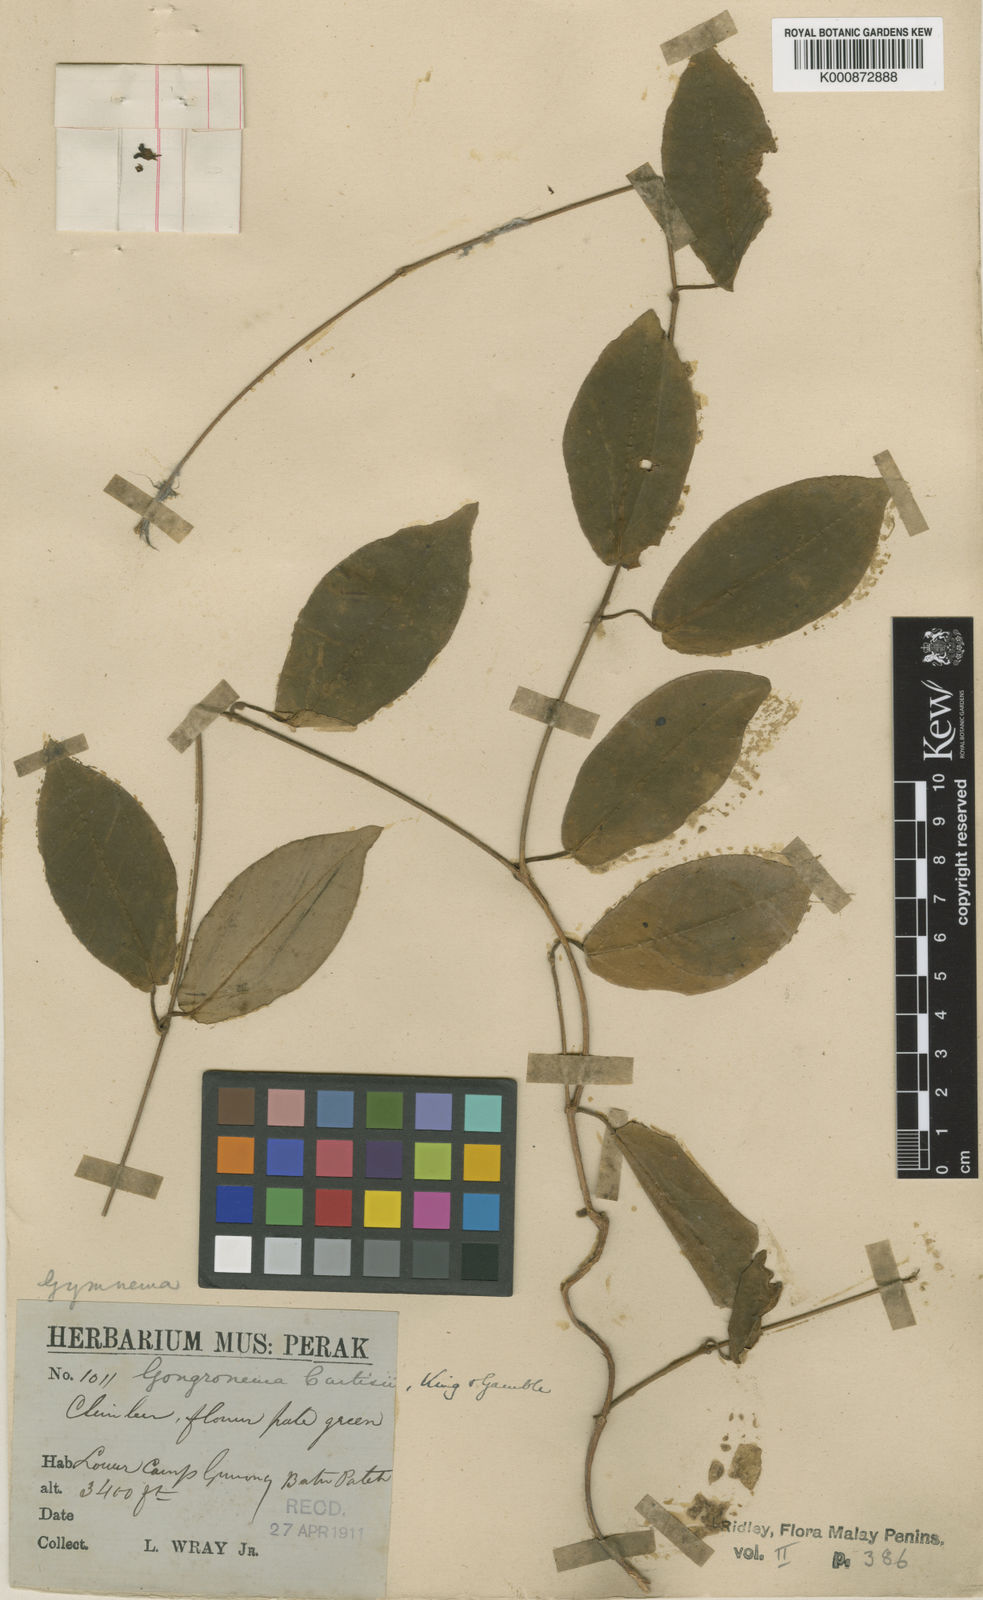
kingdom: Plantae
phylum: Tracheophyta
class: Magnoliopsida
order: Gentianales
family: Apocynaceae
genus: Gongronema
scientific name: Gongronema curtisii
